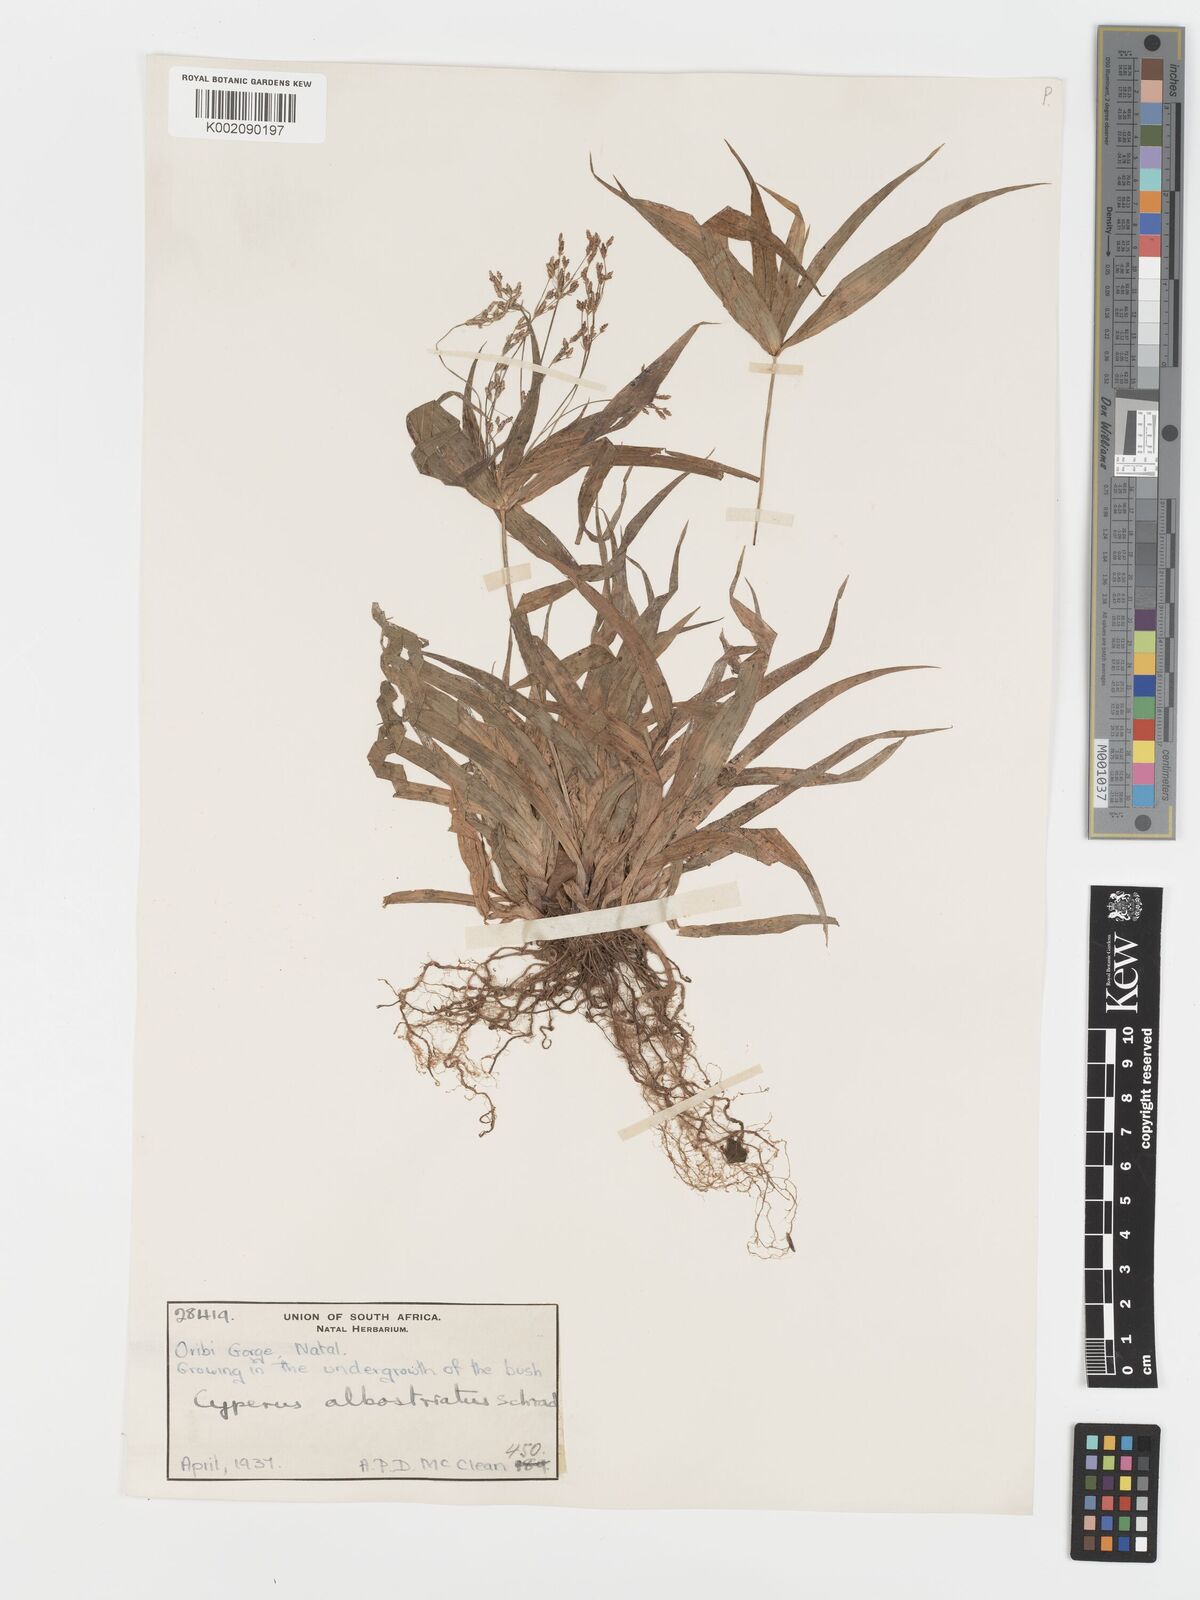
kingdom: Plantae
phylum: Tracheophyta
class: Liliopsida
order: Poales
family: Cyperaceae
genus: Cyperus
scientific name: Cyperus albostriatus
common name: Dwarf umbrella-grass
